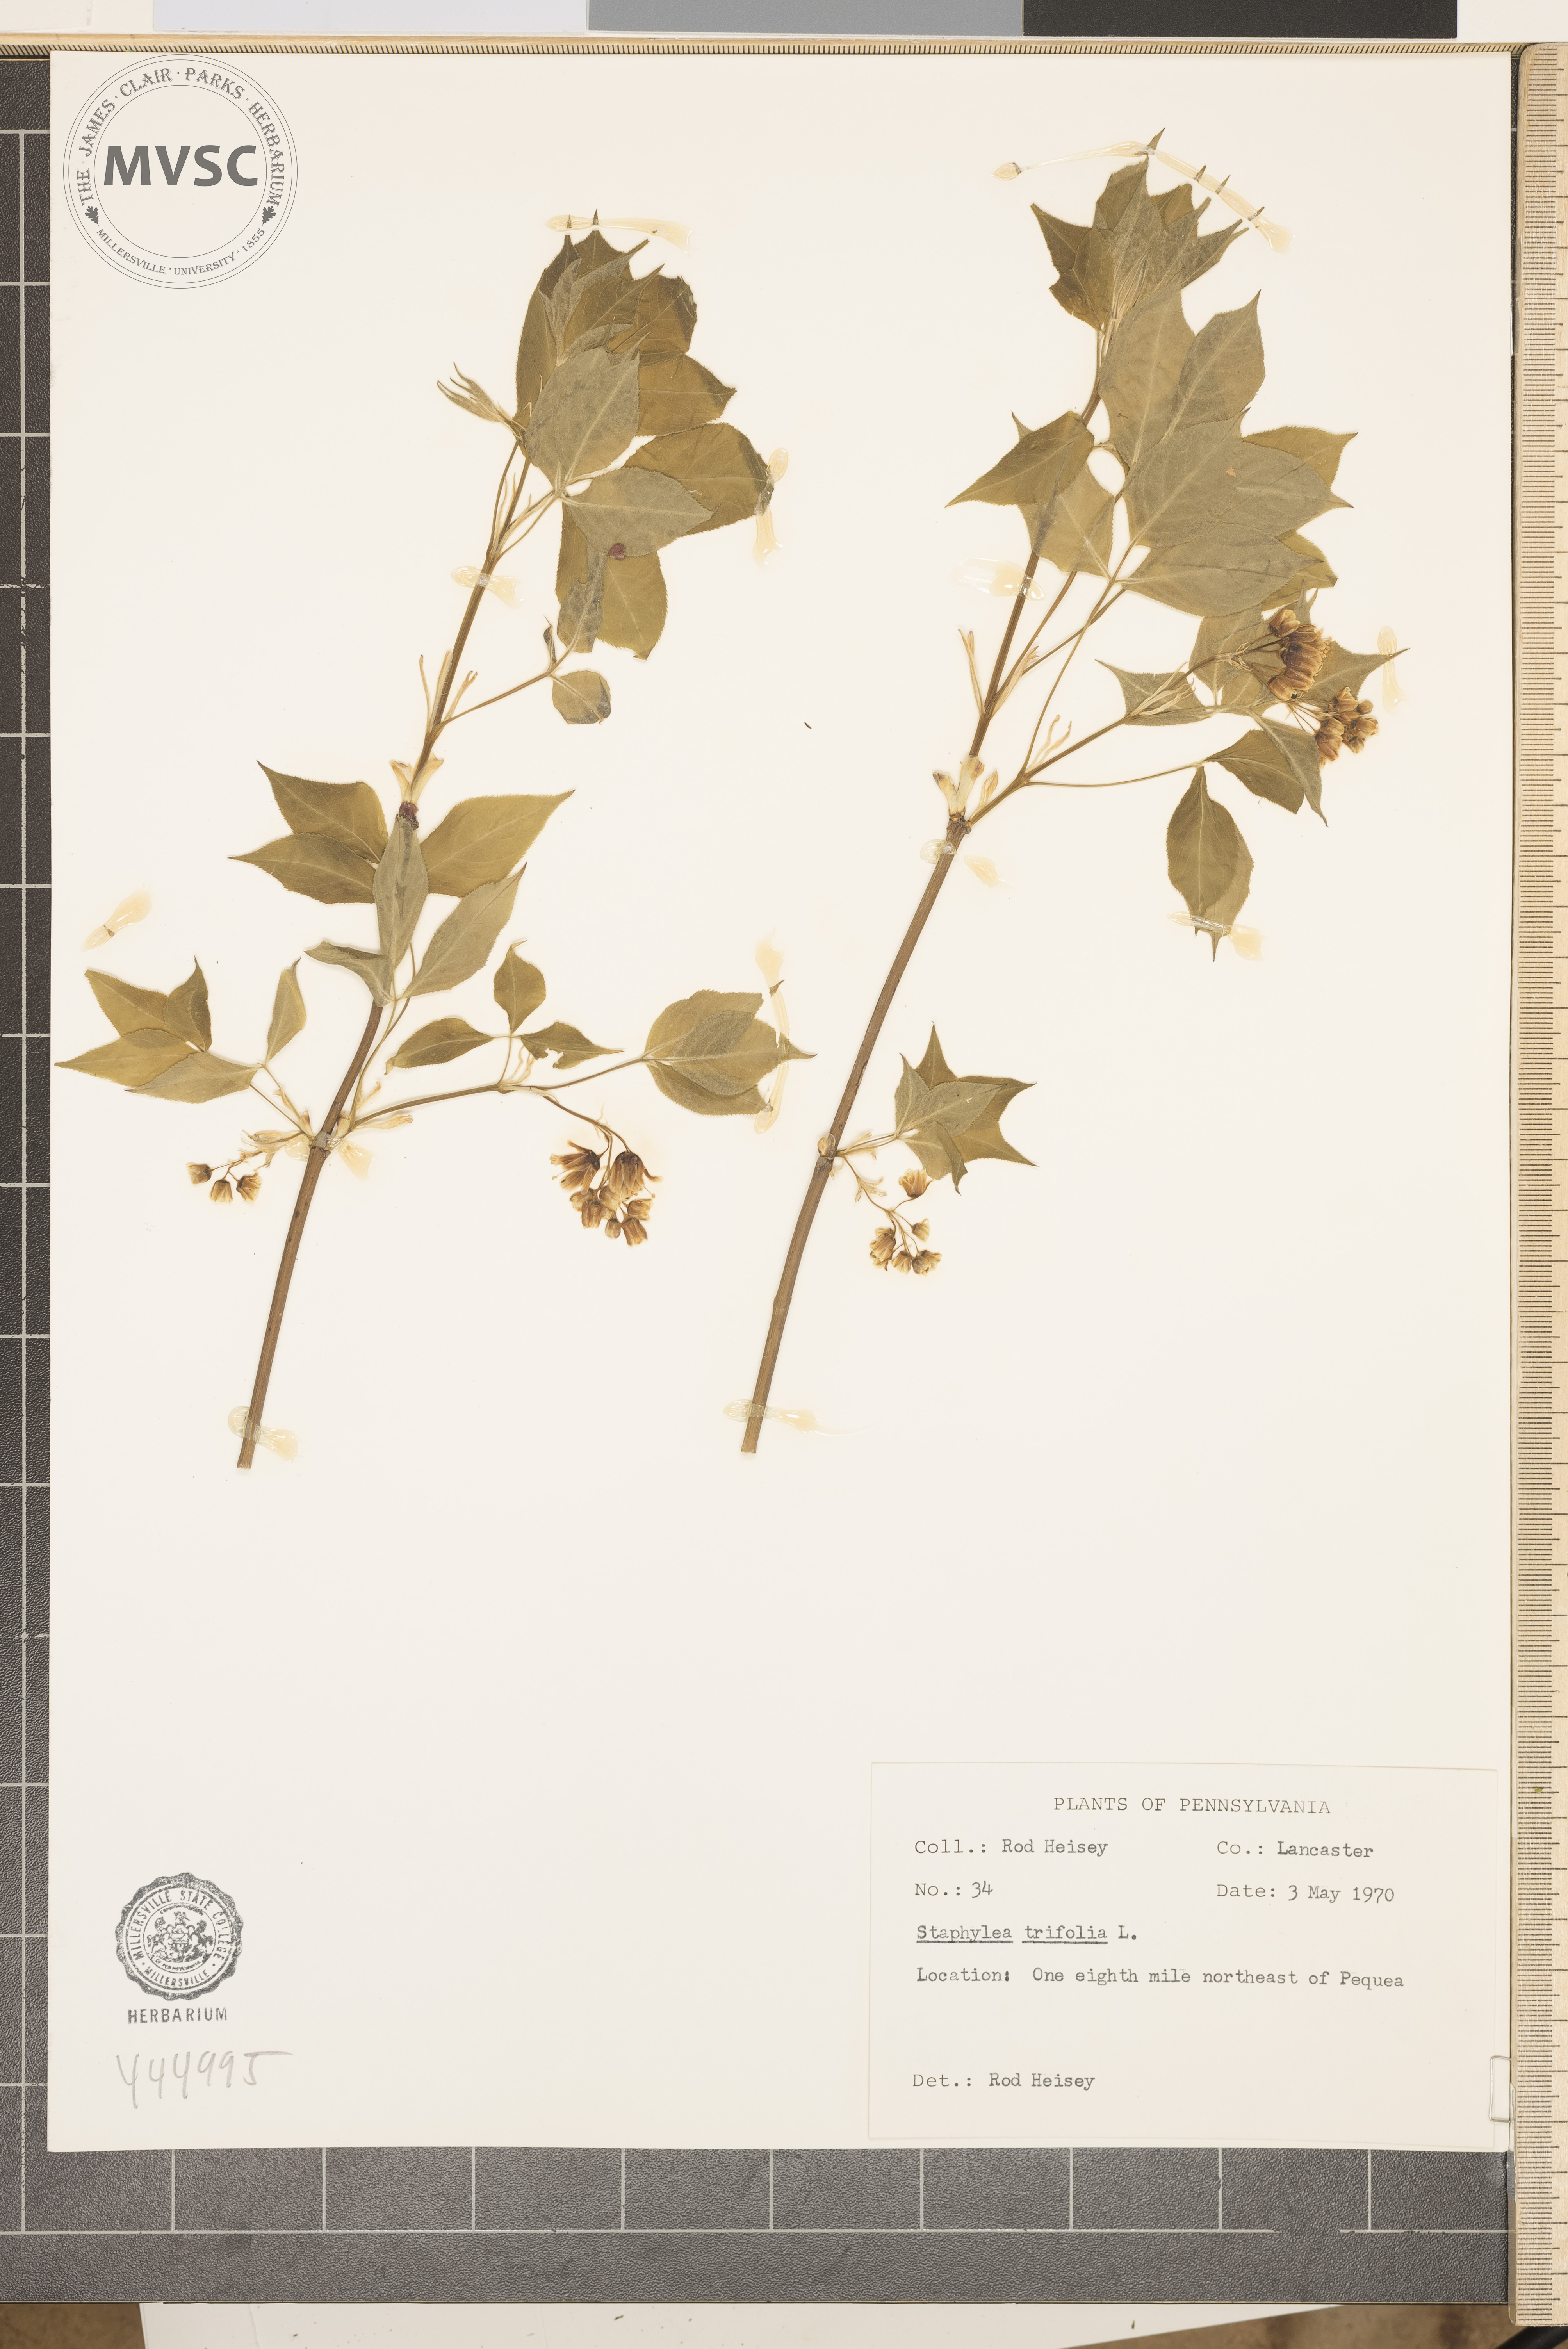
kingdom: Plantae
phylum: Tracheophyta
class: Magnoliopsida
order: Crossosomatales
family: Staphyleaceae
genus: Staphylea
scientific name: Staphylea trifolia
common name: American bladdernut
